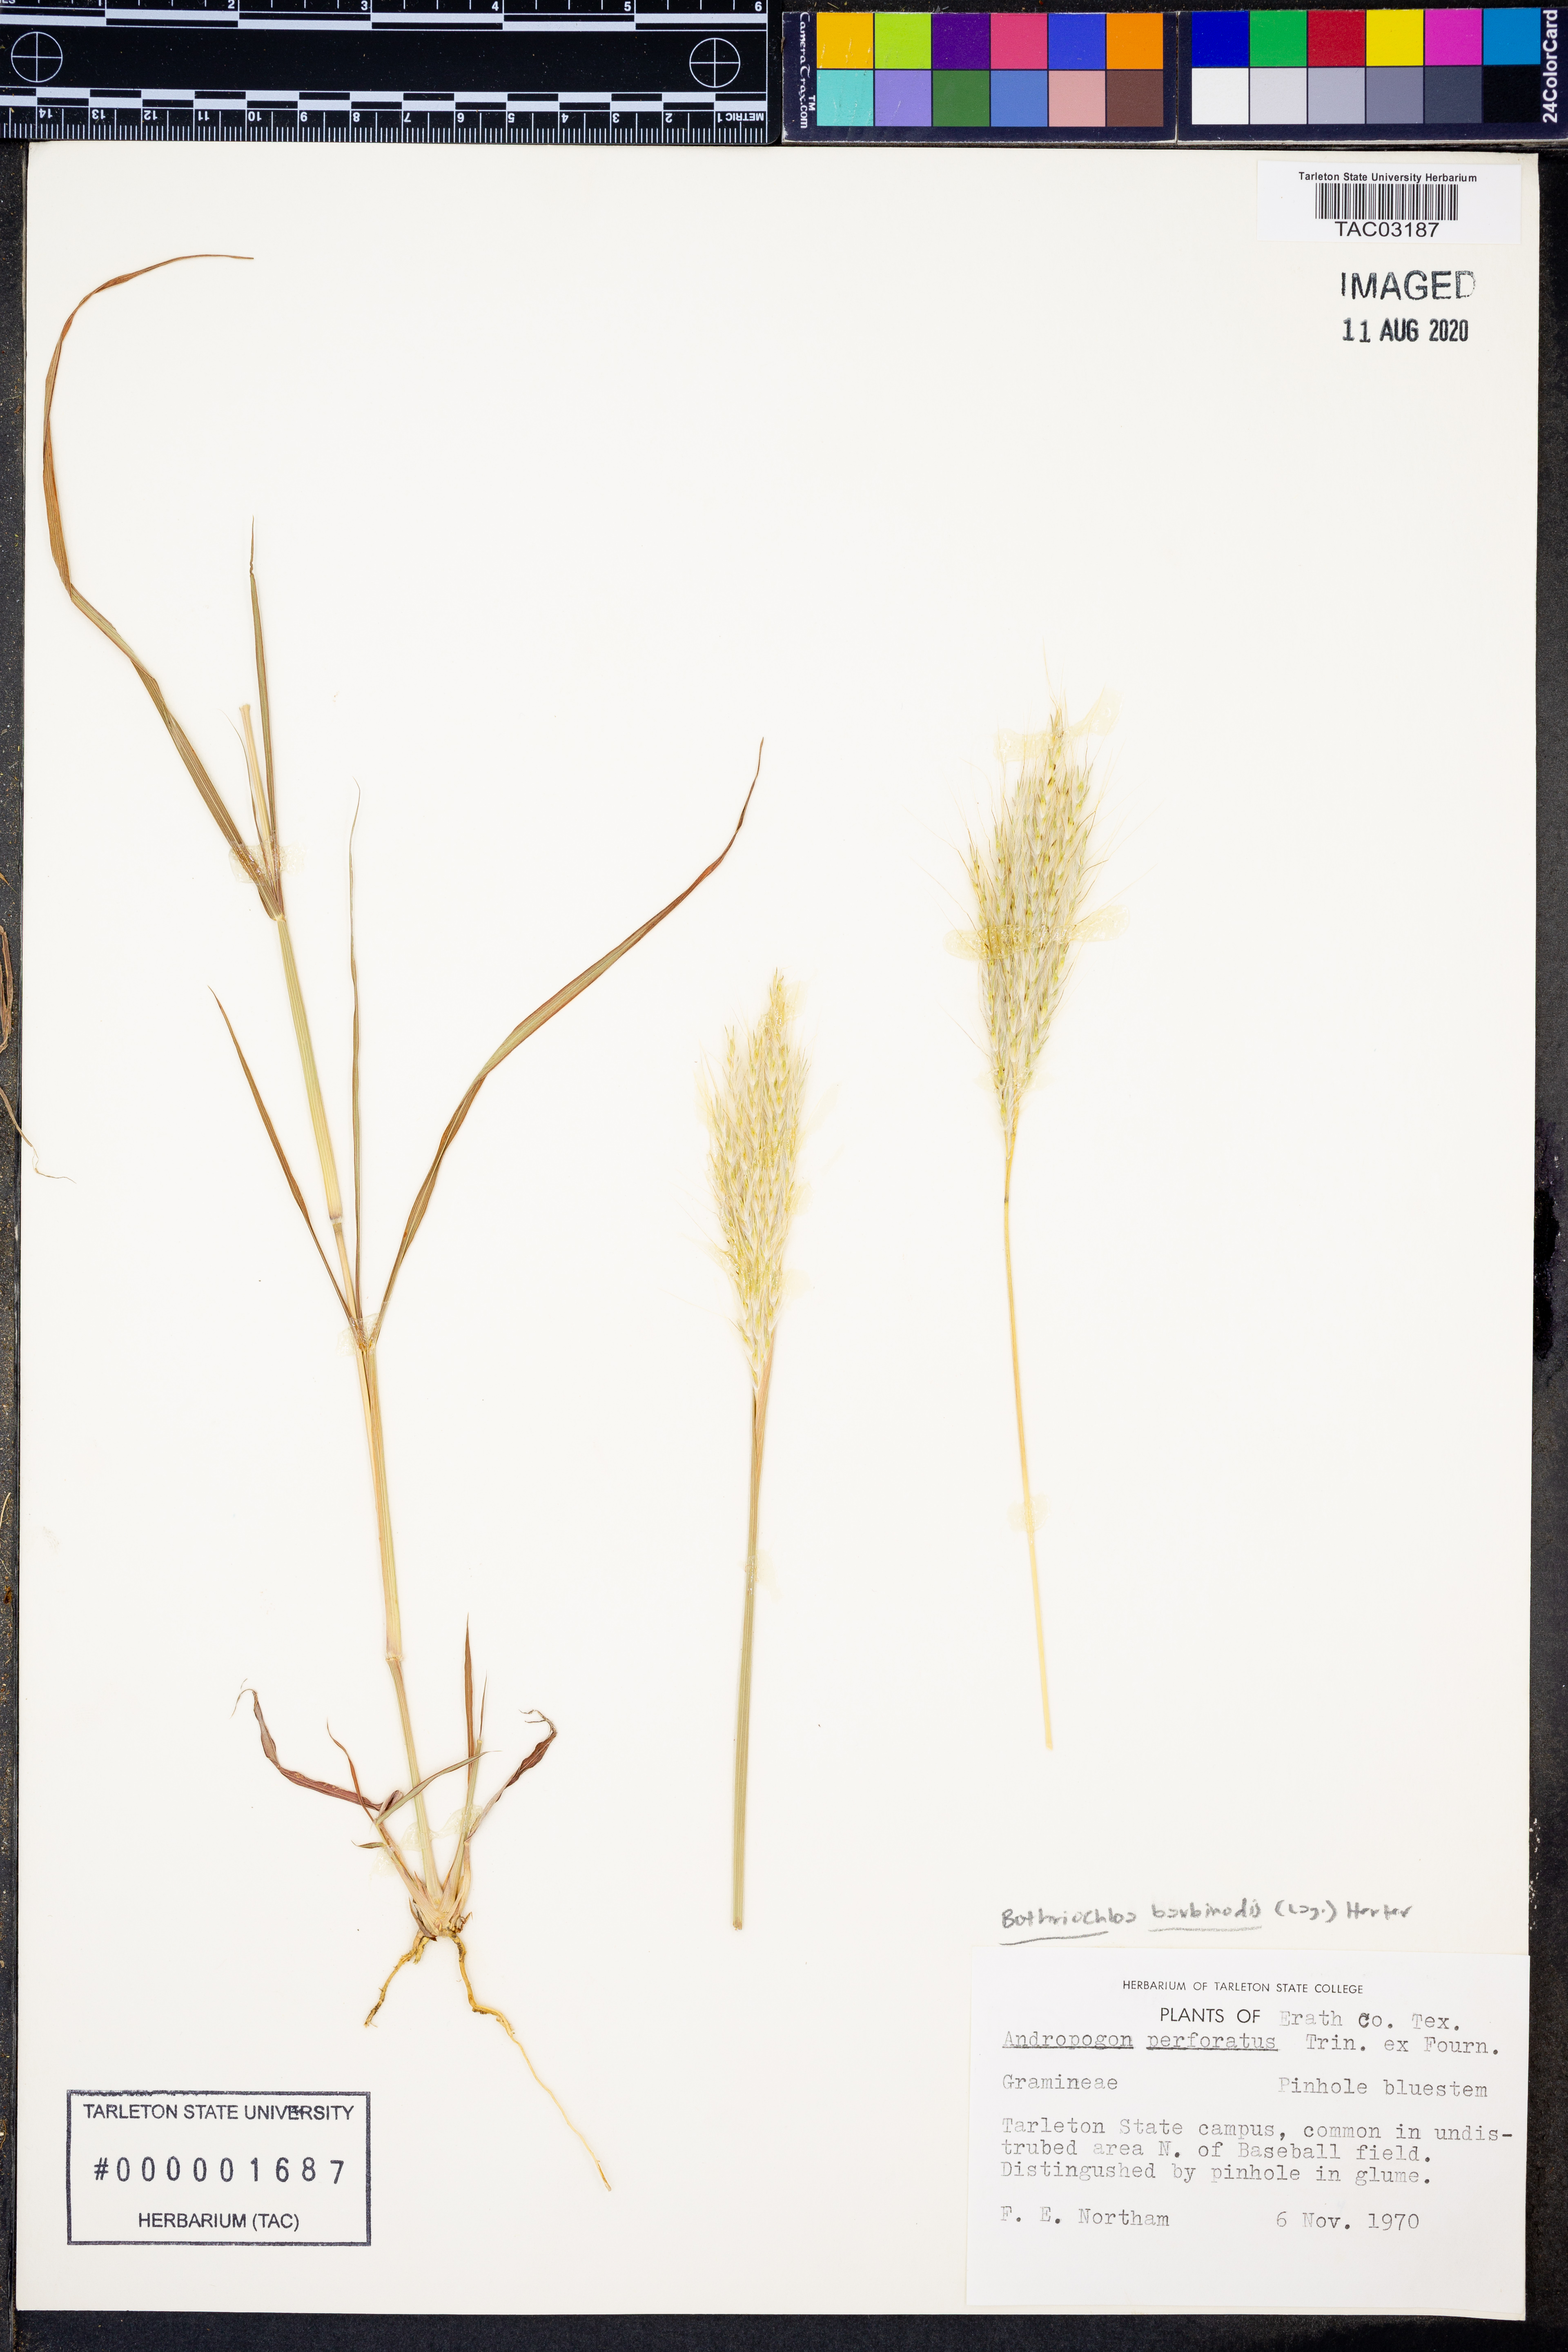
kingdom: Plantae
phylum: Tracheophyta
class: Liliopsida
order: Poales
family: Poaceae
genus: Bothriochloa
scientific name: Bothriochloa barbinodis
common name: Cane bluestem
